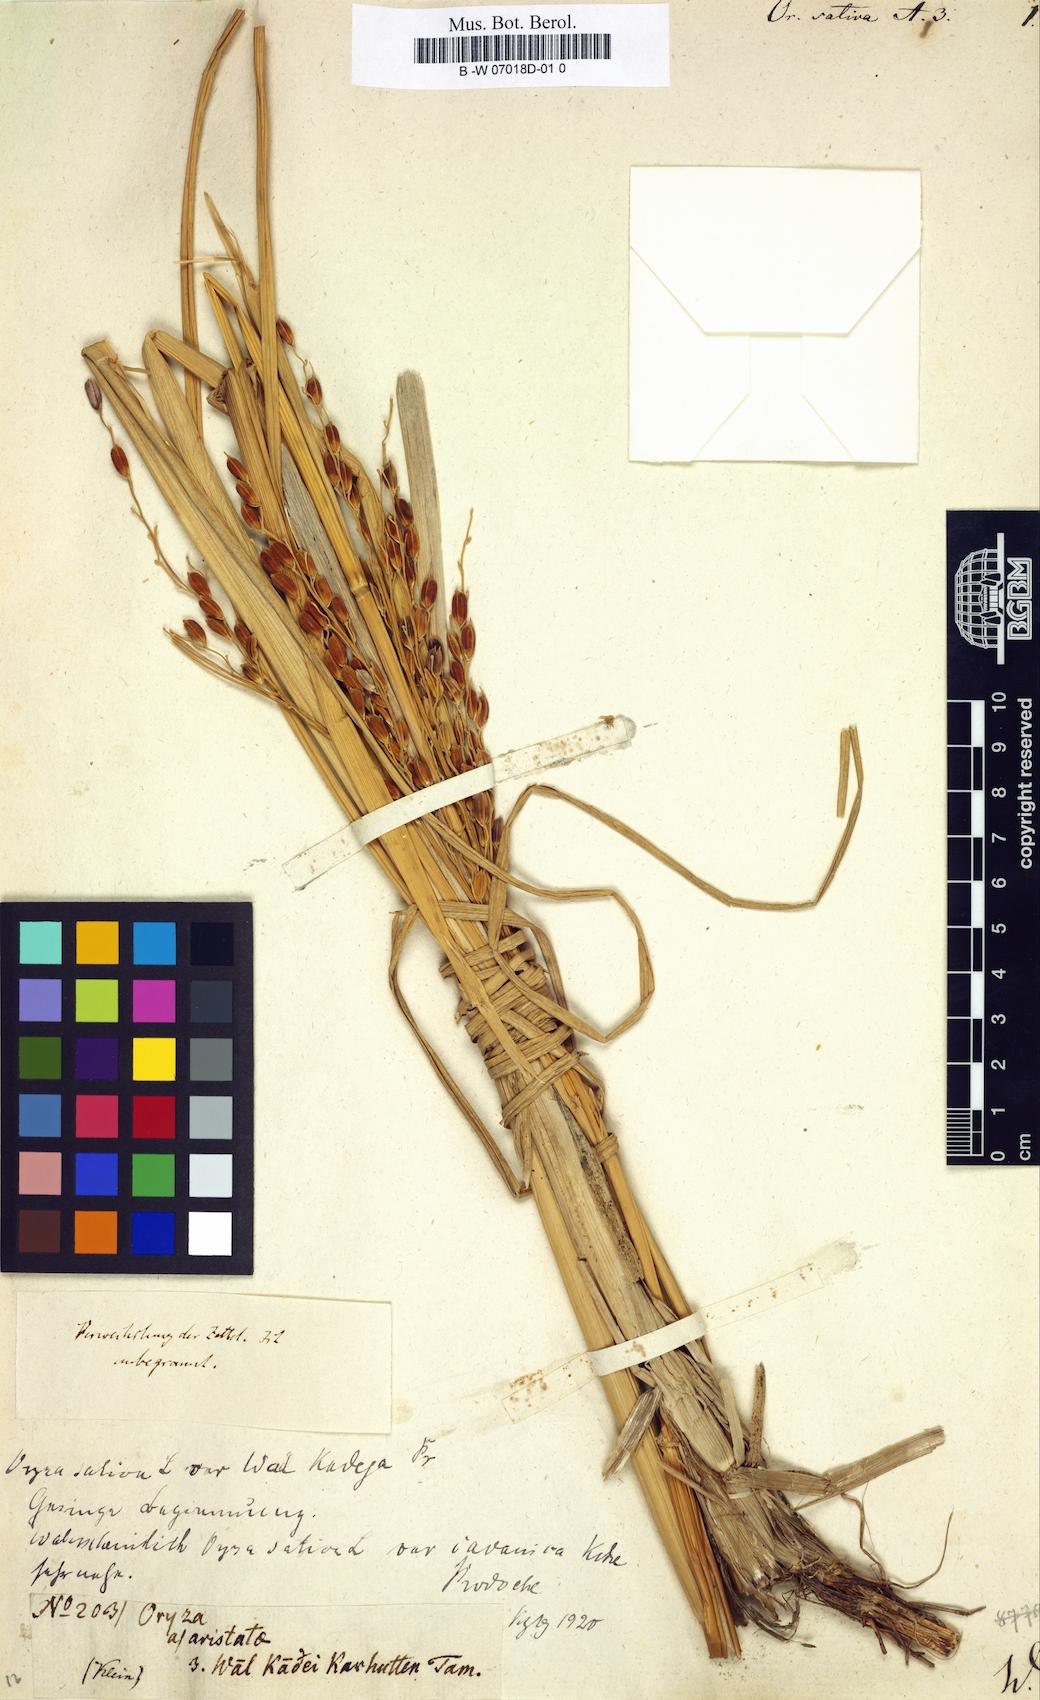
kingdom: Plantae
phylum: Tracheophyta
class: Liliopsida
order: Poales
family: Poaceae
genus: Oryza
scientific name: Oryza sativa
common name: Rice
